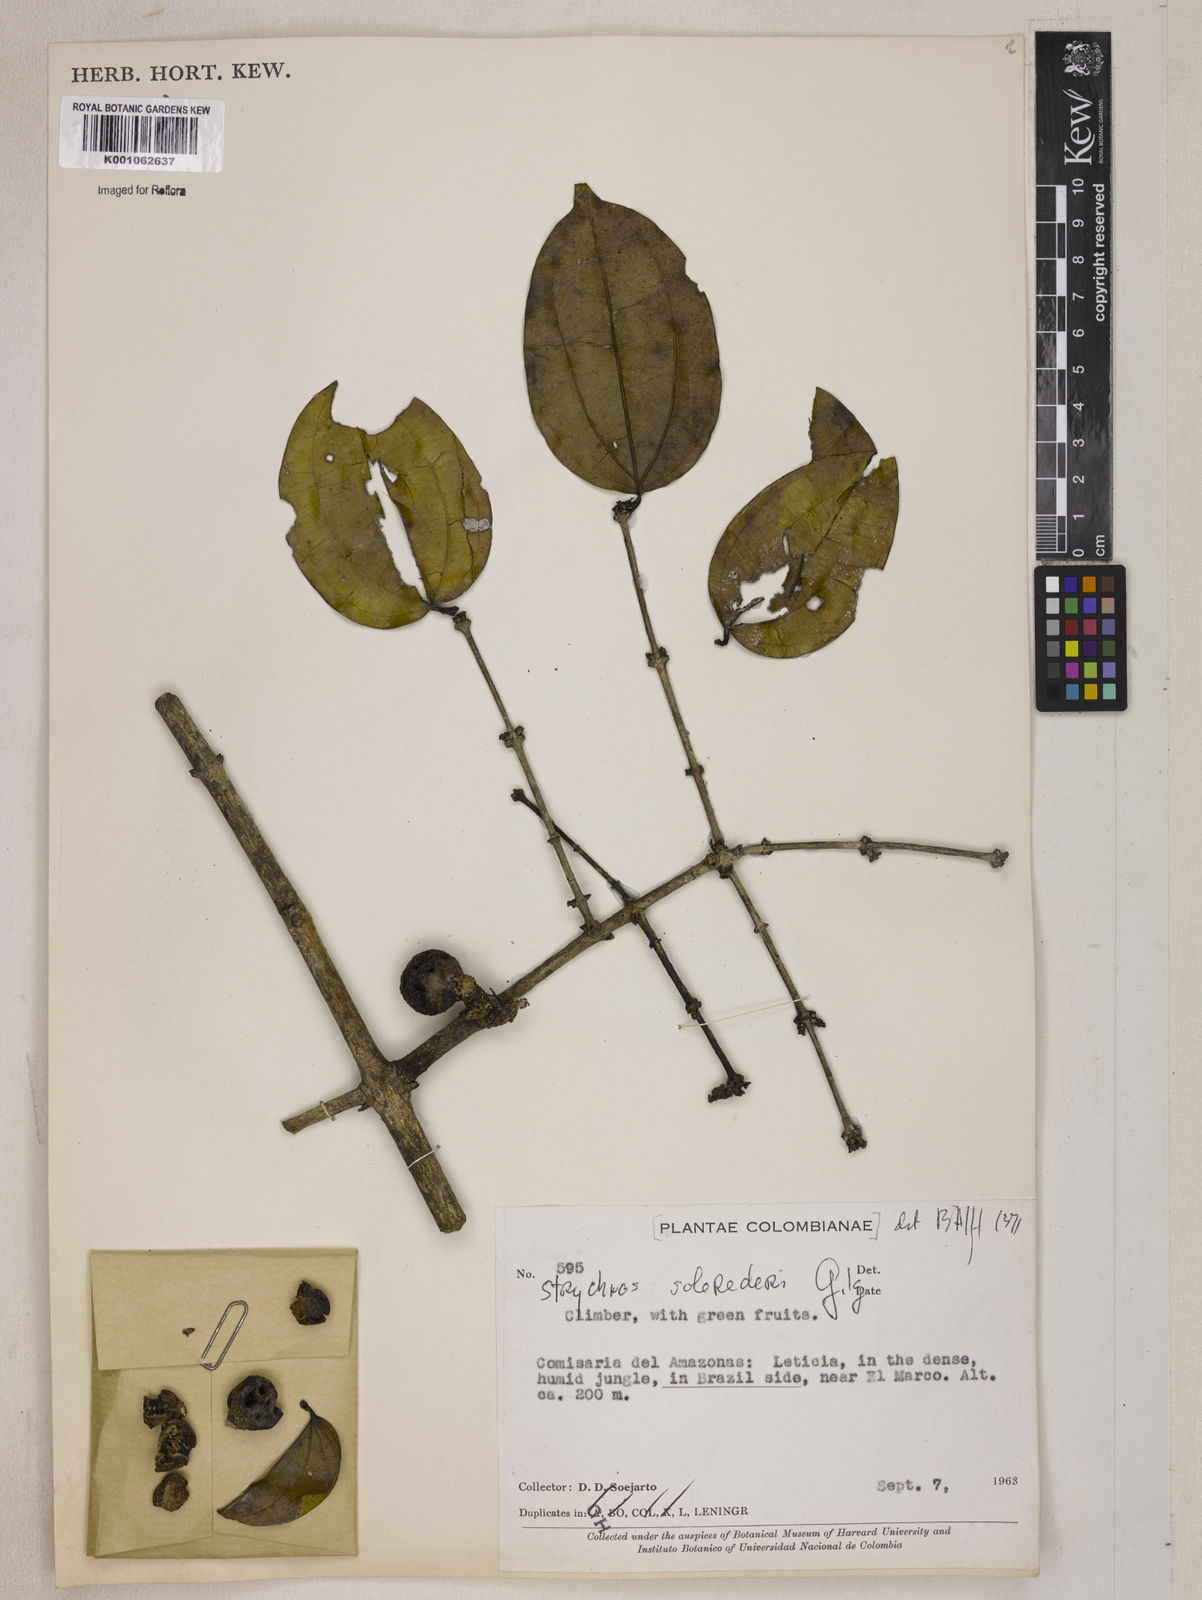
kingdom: Plantae
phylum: Tracheophyta
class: Magnoliopsida
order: Gentianales
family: Loganiaceae
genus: Strychnos
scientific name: Strychnos solerederi
